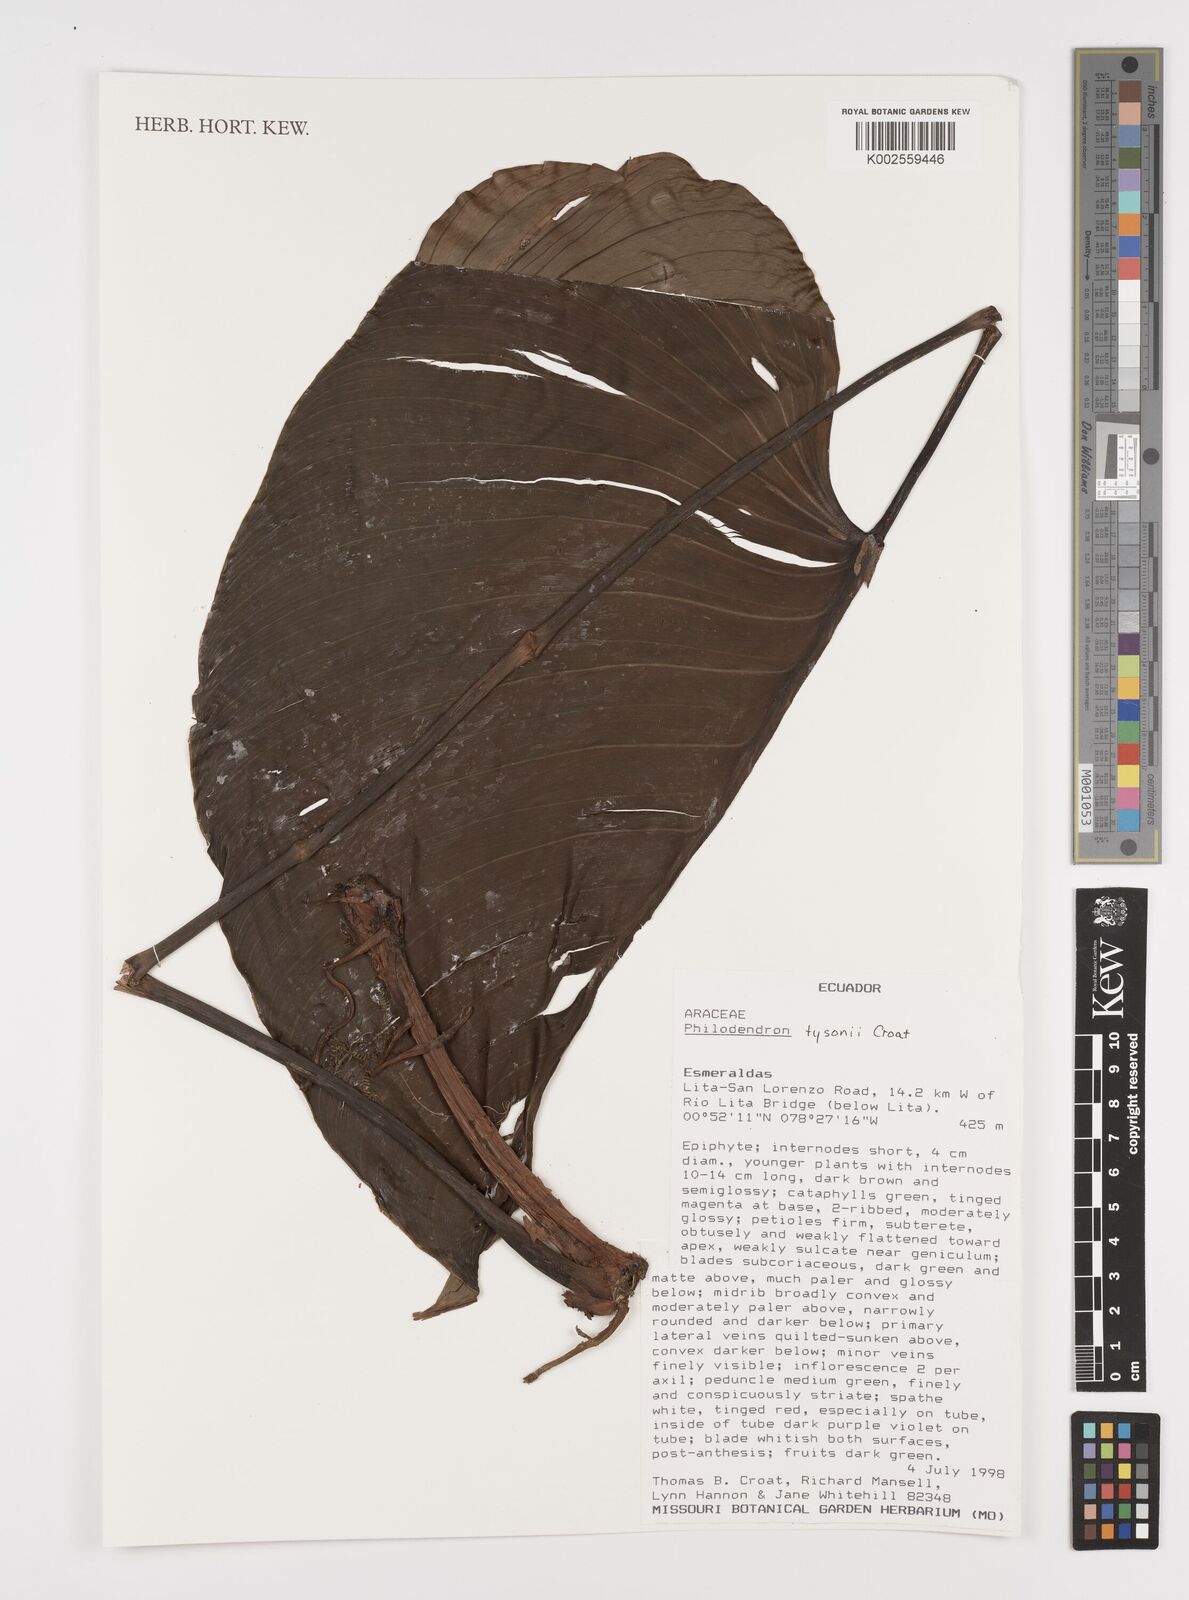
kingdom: Plantae
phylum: Tracheophyta
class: Liliopsida
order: Alismatales
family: Araceae
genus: Philodendron
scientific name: Philodendron tysonii
